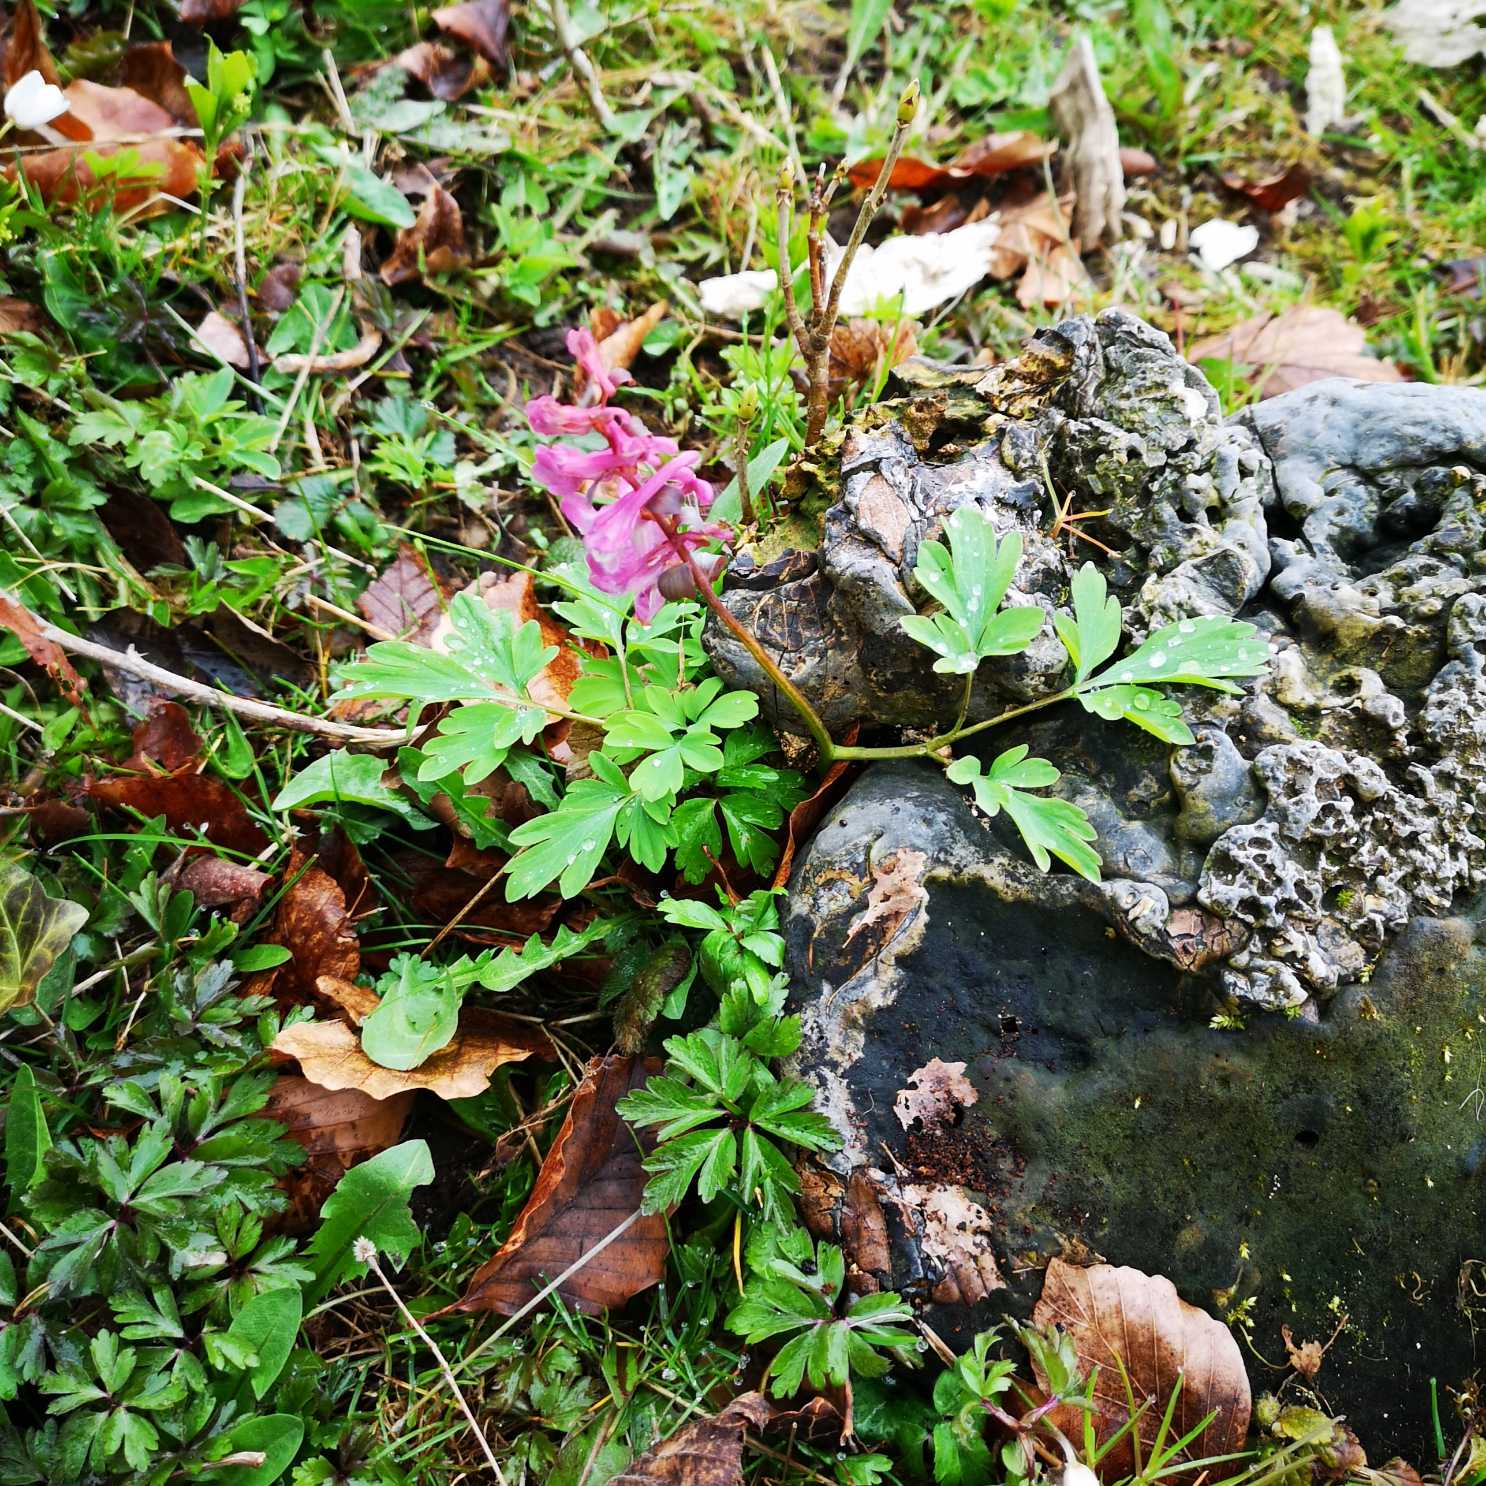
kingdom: Plantae
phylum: Tracheophyta
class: Magnoliopsida
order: Ranunculales
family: Papaveraceae
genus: Corydalis
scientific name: Corydalis cava
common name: Hulrodet lærkespore
